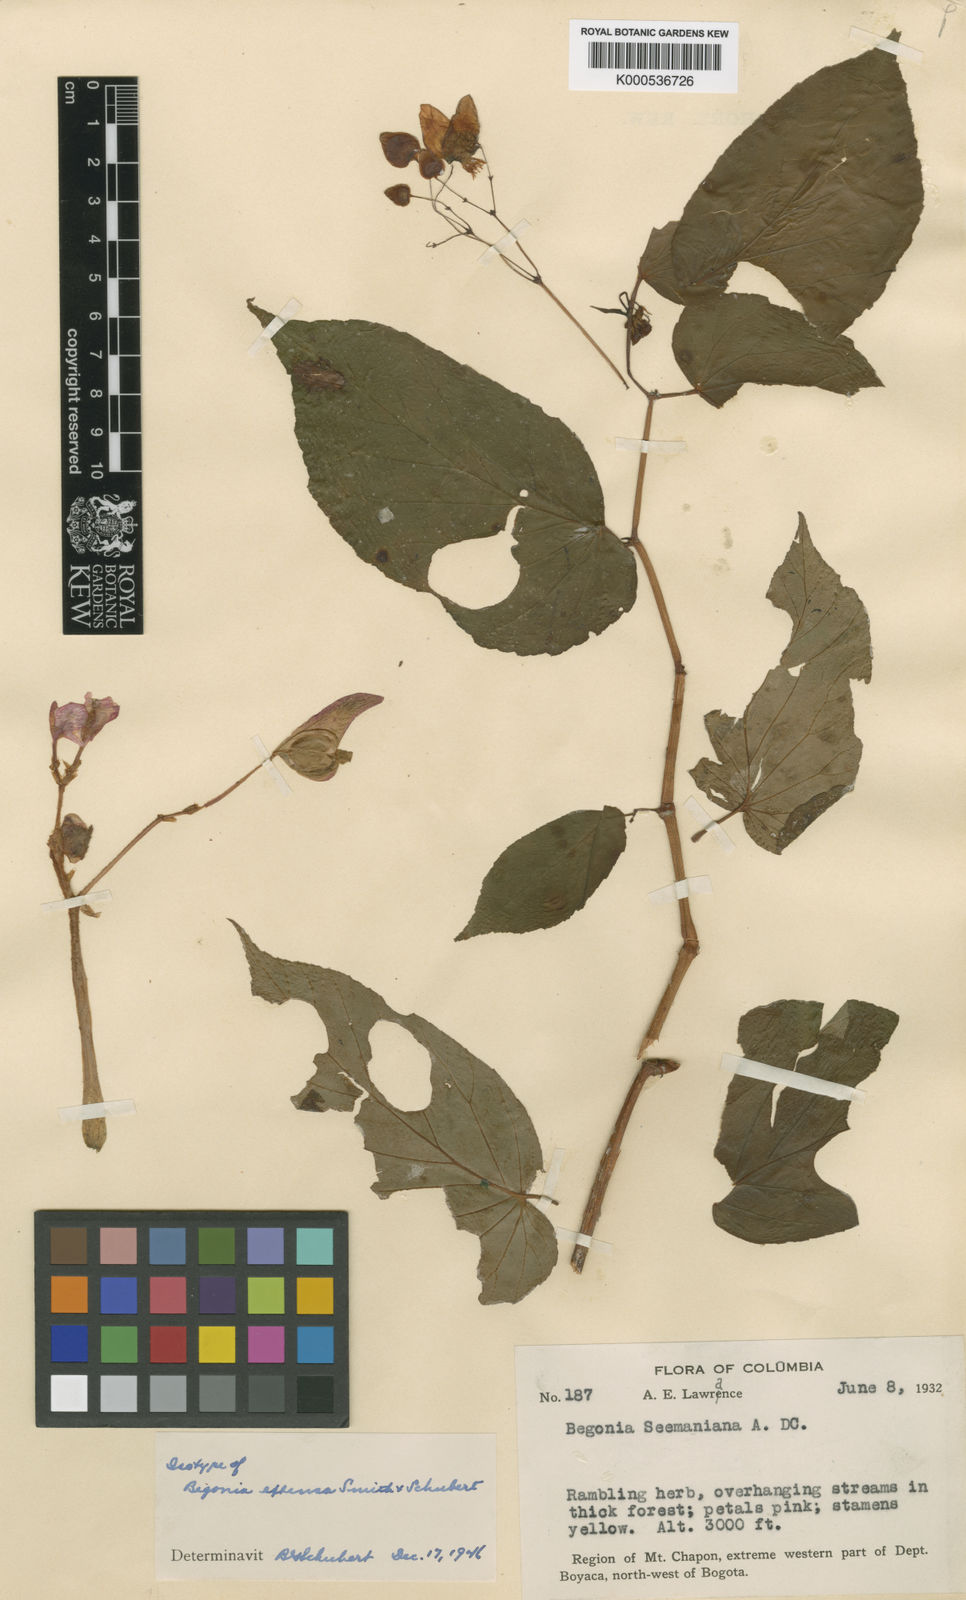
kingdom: Plantae
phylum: Tracheophyta
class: Magnoliopsida
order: Cucurbitales
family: Begoniaceae
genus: Begonia
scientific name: Begonia extensa
